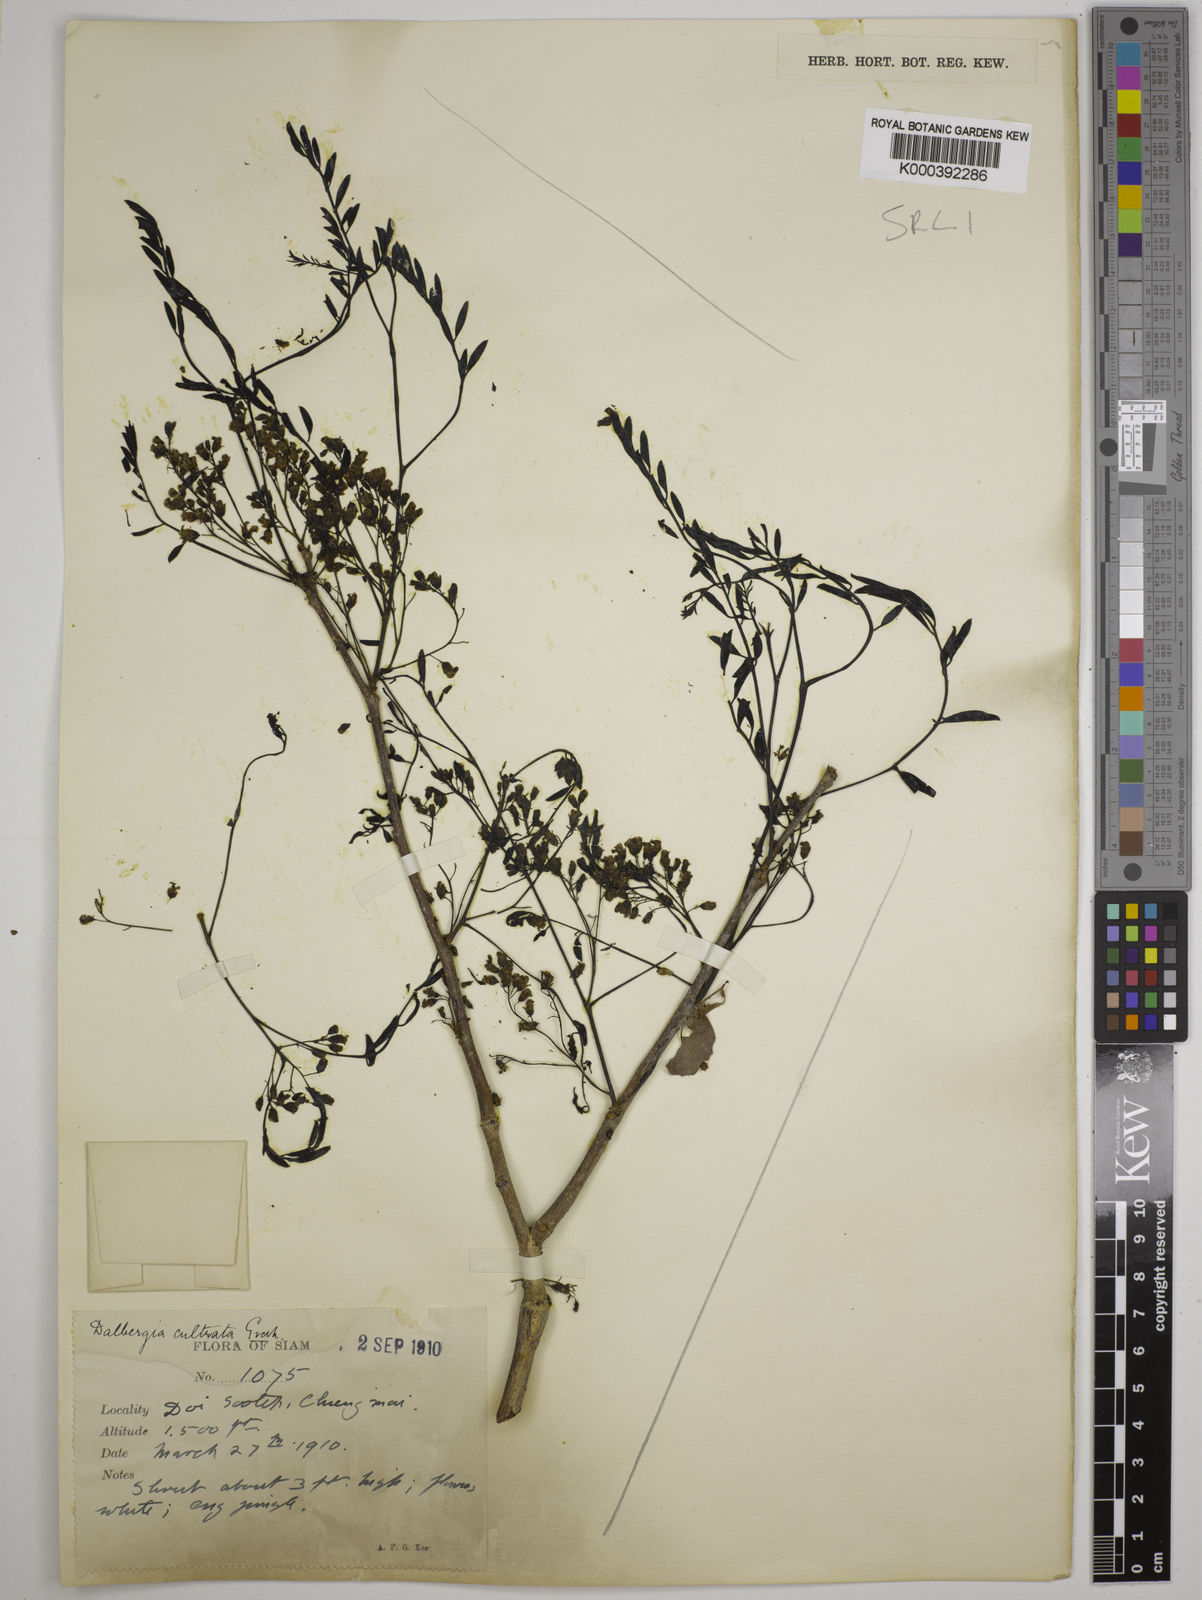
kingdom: Plantae
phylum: Tracheophyta
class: Magnoliopsida
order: Fabales
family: Fabaceae
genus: Dalbergia
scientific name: Dalbergia
